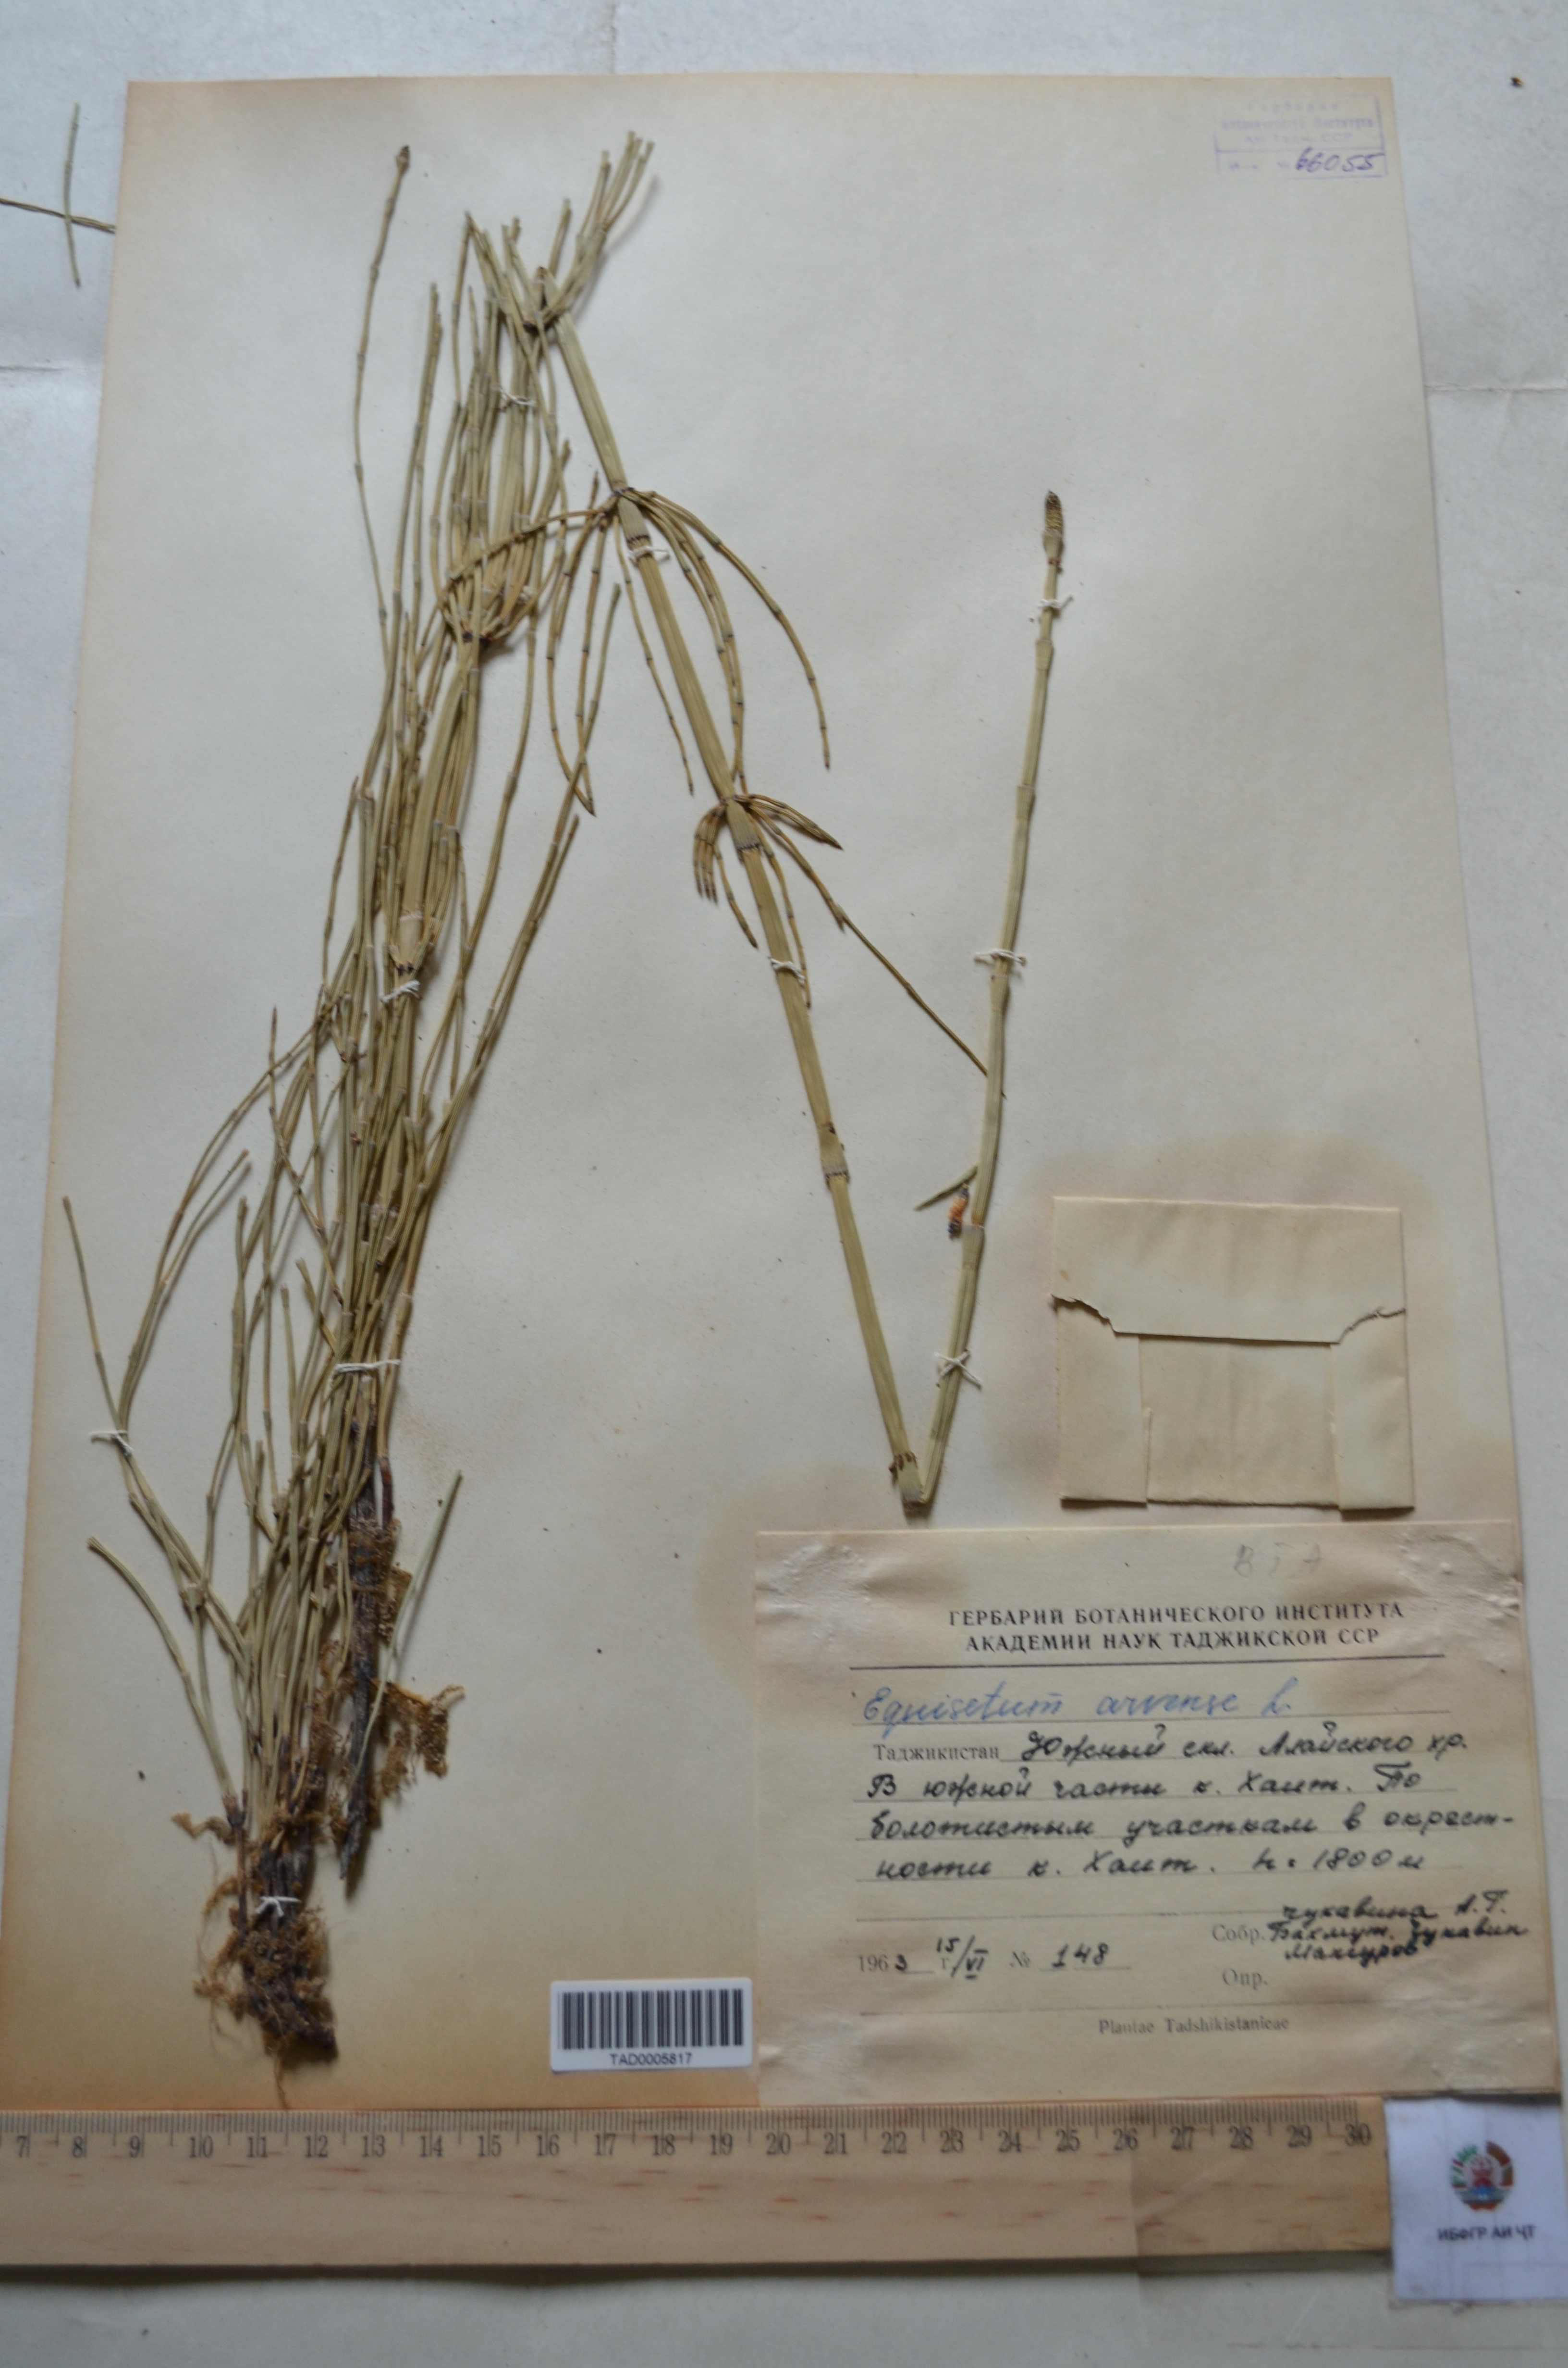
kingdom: Plantae
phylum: Tracheophyta
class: Polypodiopsida
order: Equisetales
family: Equisetaceae
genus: Equisetum
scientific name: Equisetum arvense
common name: Field horsetail
